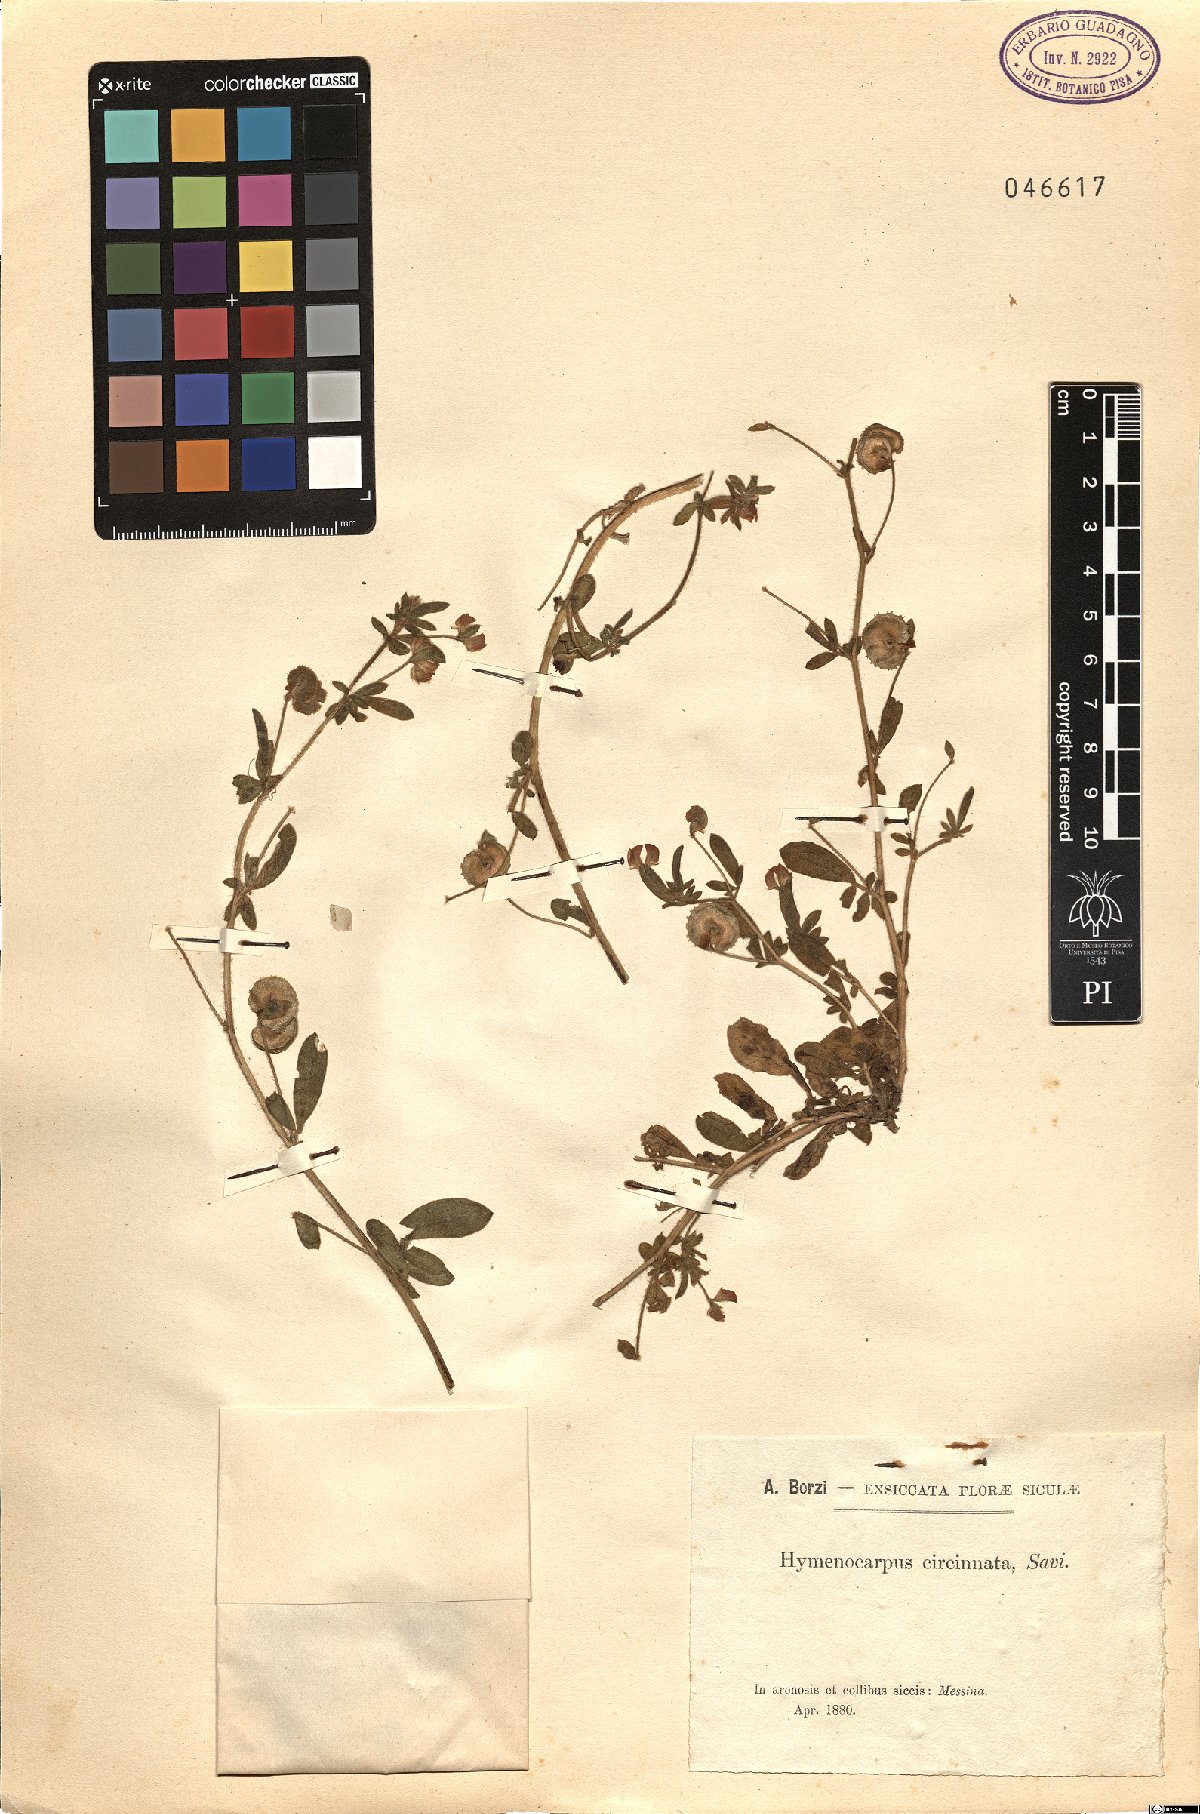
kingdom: Plantae
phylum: Tracheophyta
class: Magnoliopsida
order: Fabales
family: Fabaceae
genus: Anthyllis
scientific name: Anthyllis circinnata
